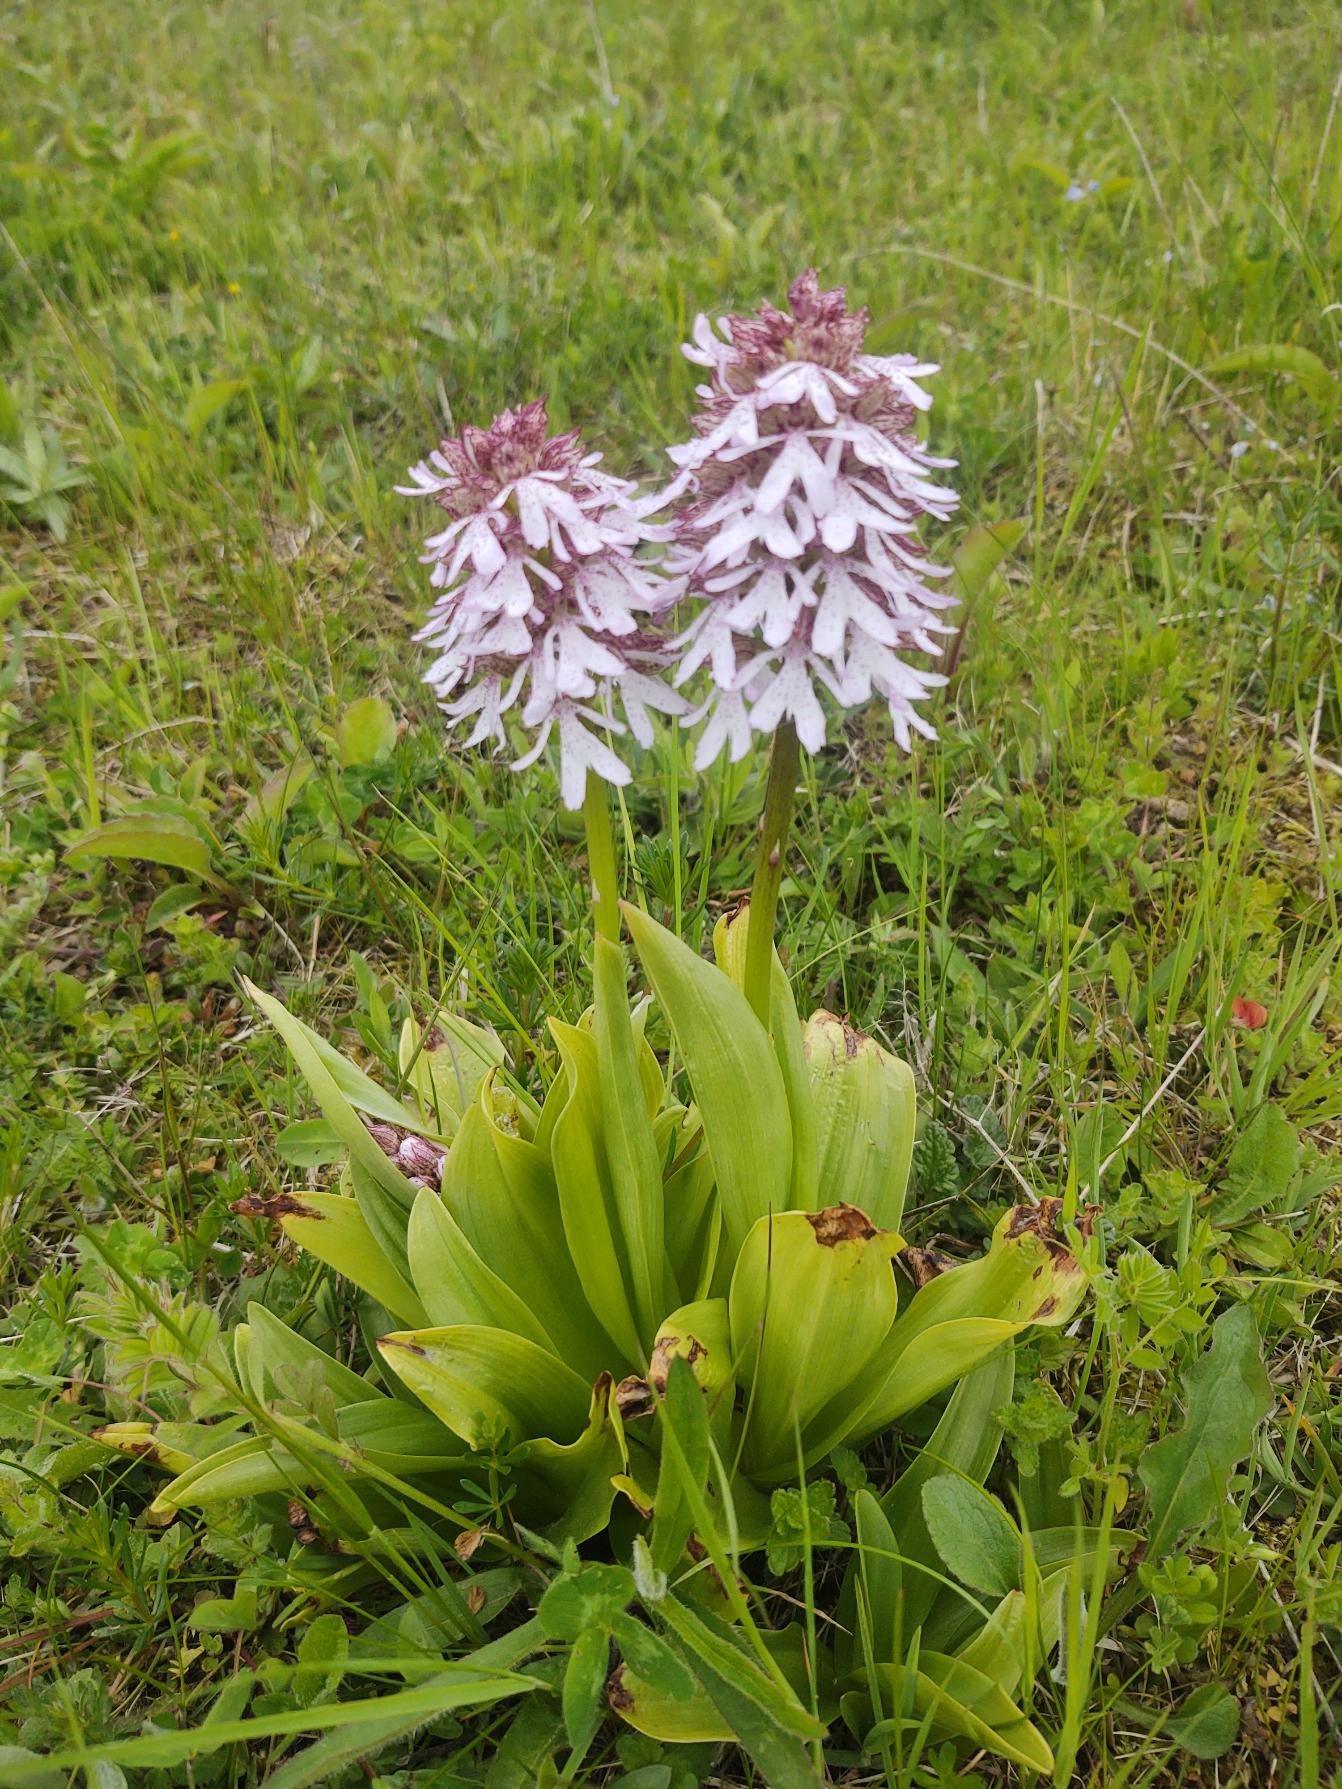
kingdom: Plantae
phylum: Tracheophyta
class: Liliopsida
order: Asparagales
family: Orchidaceae
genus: Orchis
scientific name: Orchis purpurea
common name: Stor gøgeurt
